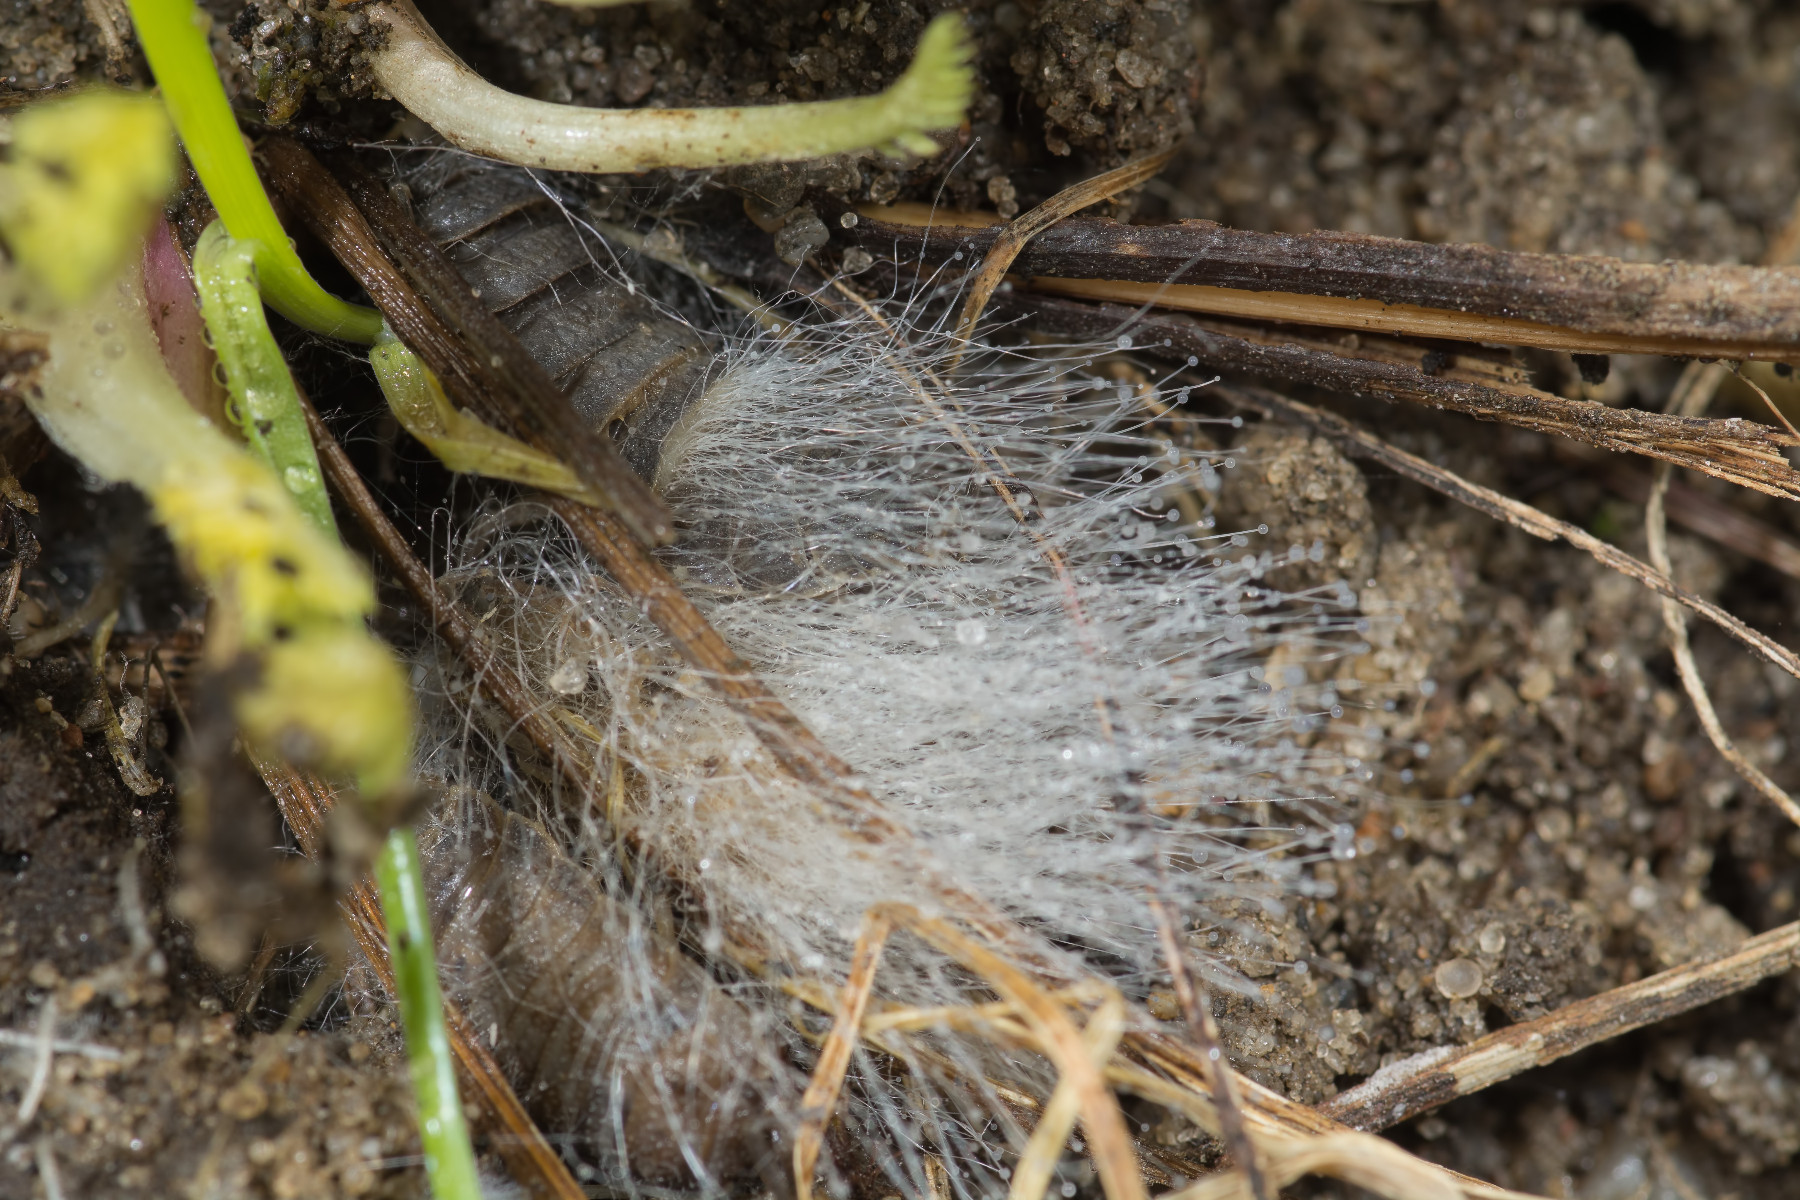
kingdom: Fungi
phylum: Mucoromycota
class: Mucoromycetes
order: Mucorales
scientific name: Mucorales
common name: mugordenen
